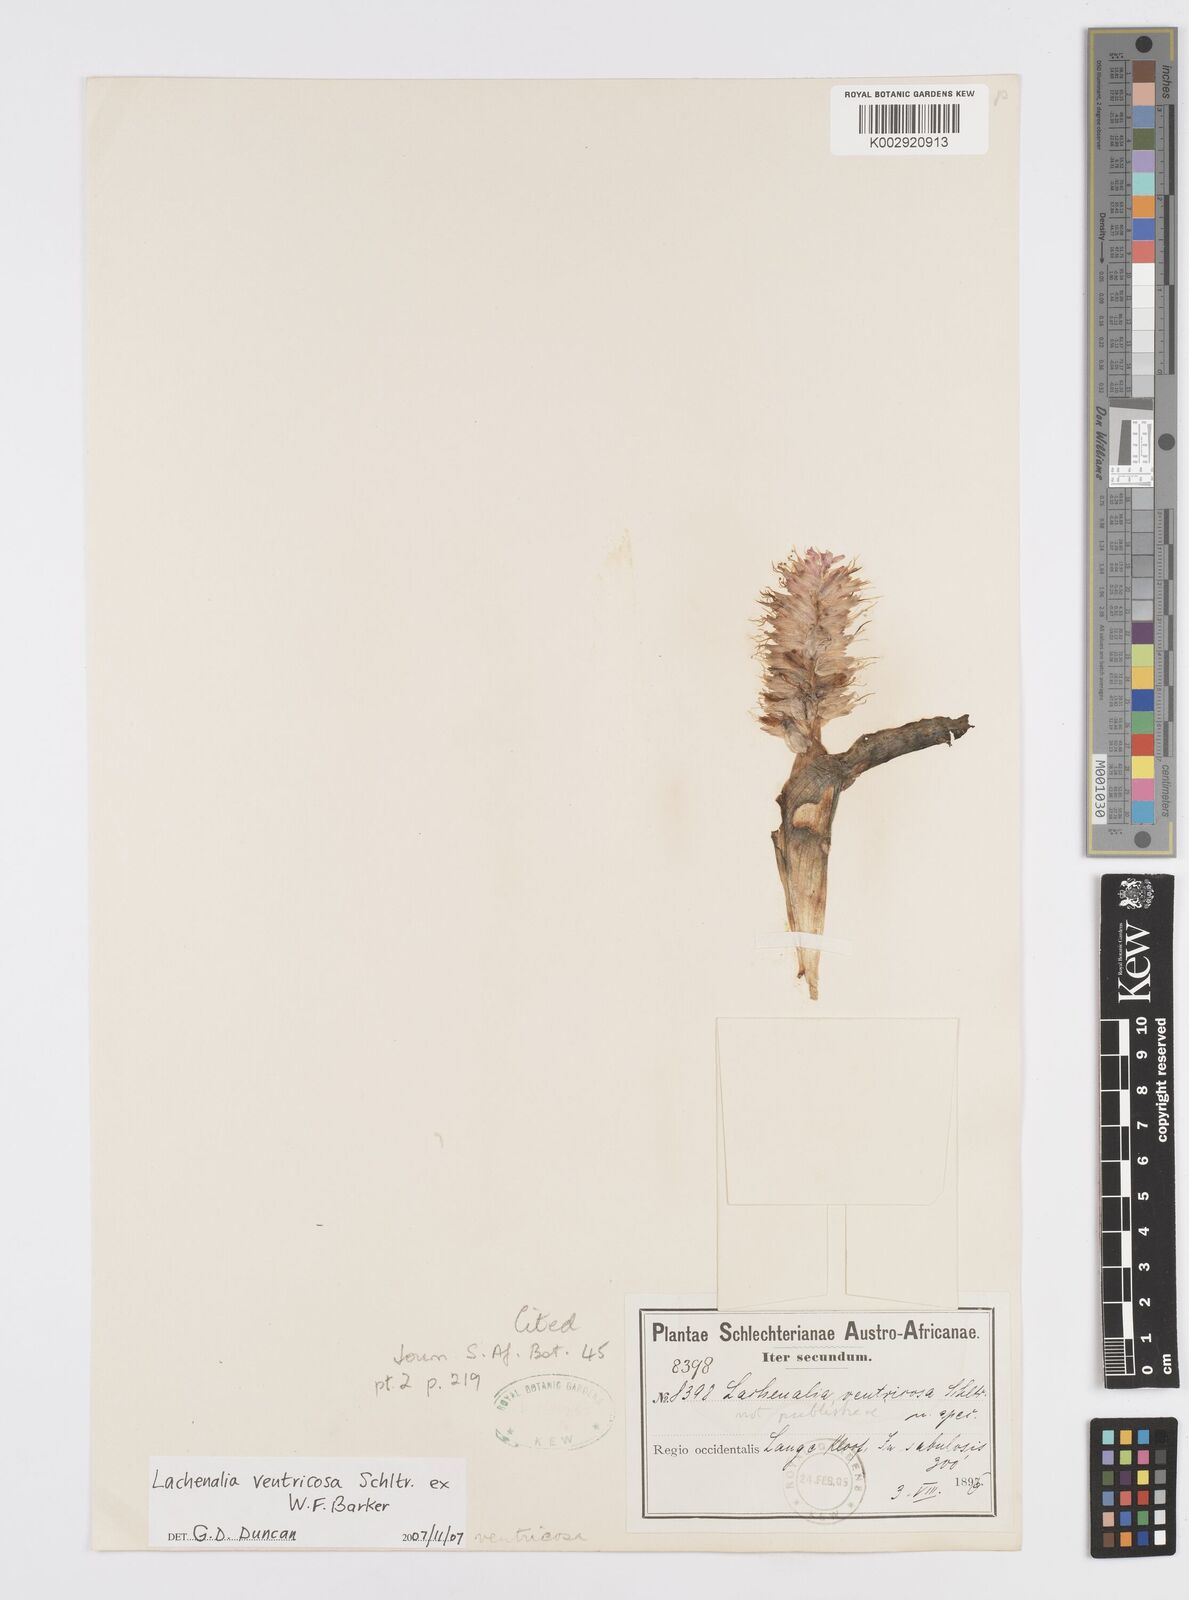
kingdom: Plantae
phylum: Tracheophyta
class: Liliopsida
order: Asparagales
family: Asparagaceae
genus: Lachenalia
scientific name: Lachenalia ventricosa
